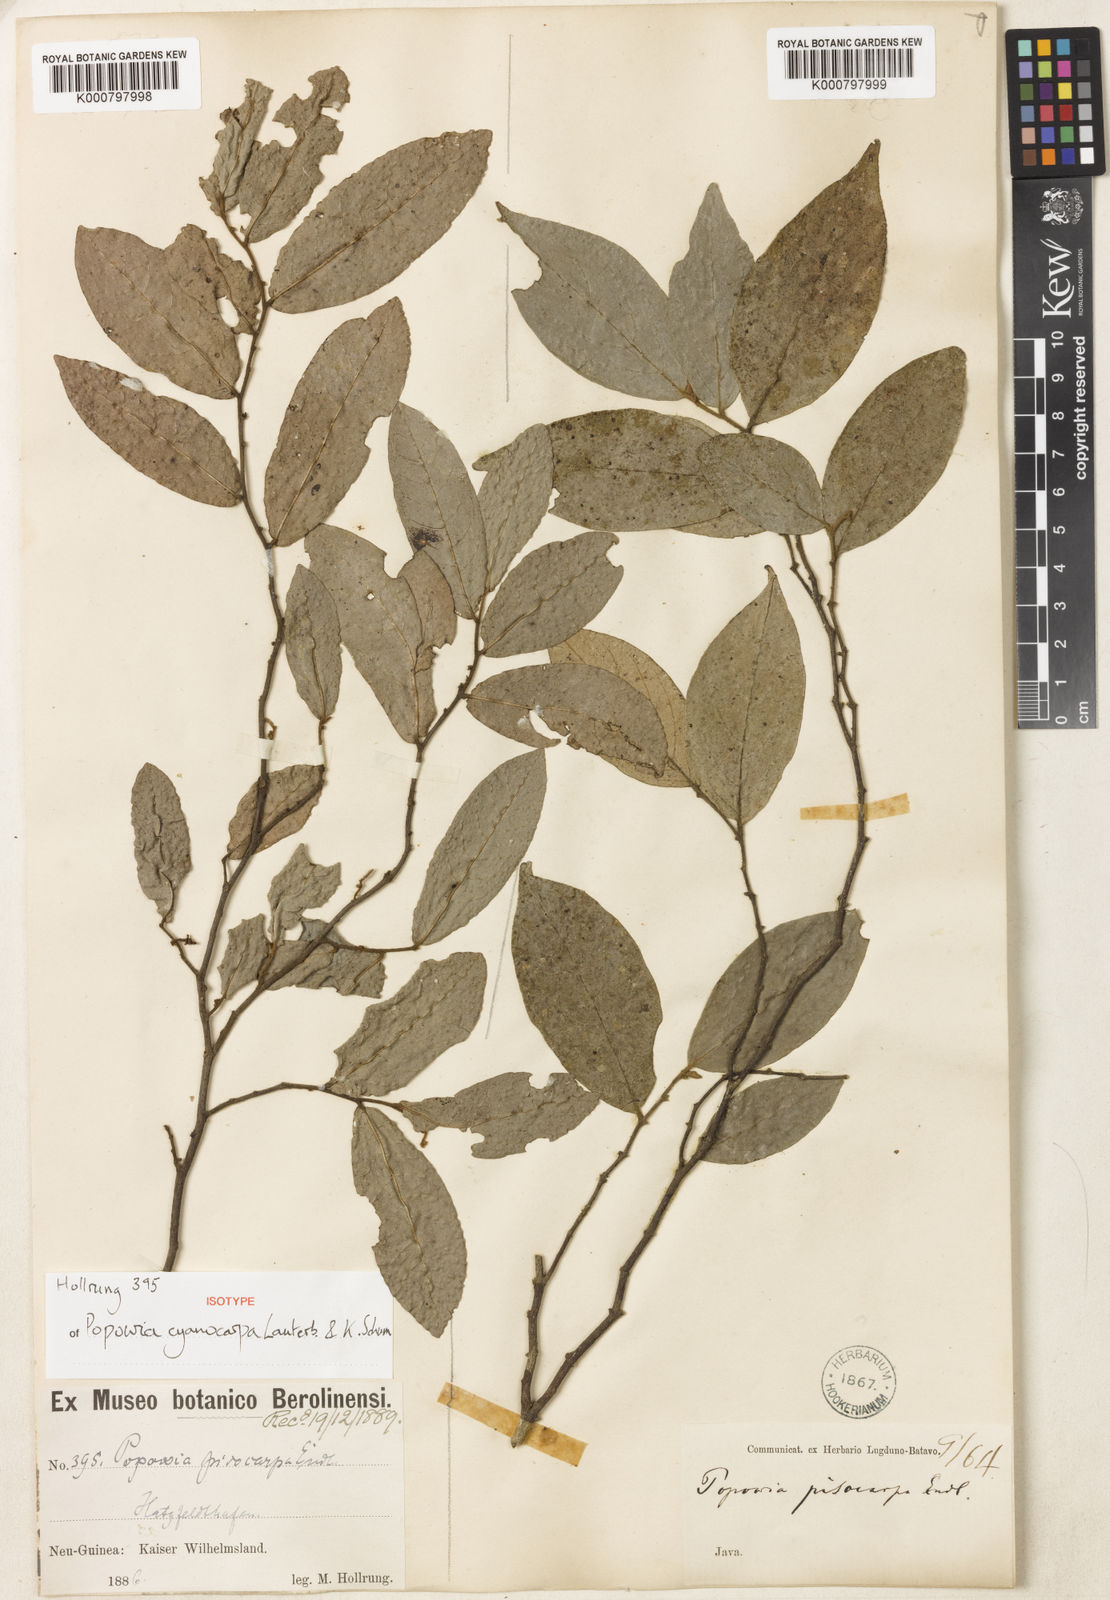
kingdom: Plantae
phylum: Tracheophyta
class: Magnoliopsida
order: Magnoliales
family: Annonaceae
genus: Popowia
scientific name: Popowia cyanocarpa
